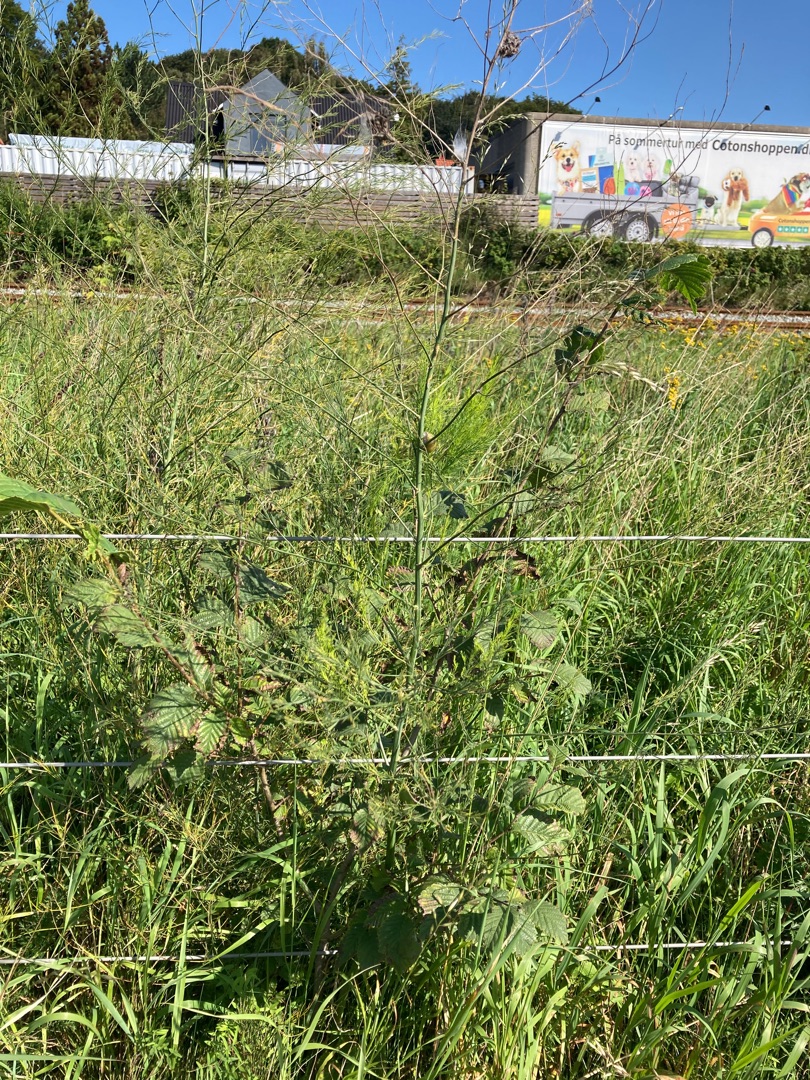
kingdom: Plantae
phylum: Tracheophyta
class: Liliopsida
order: Asparagales
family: Asparagaceae
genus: Asparagus
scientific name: Asparagus officinalis
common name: Asparges
